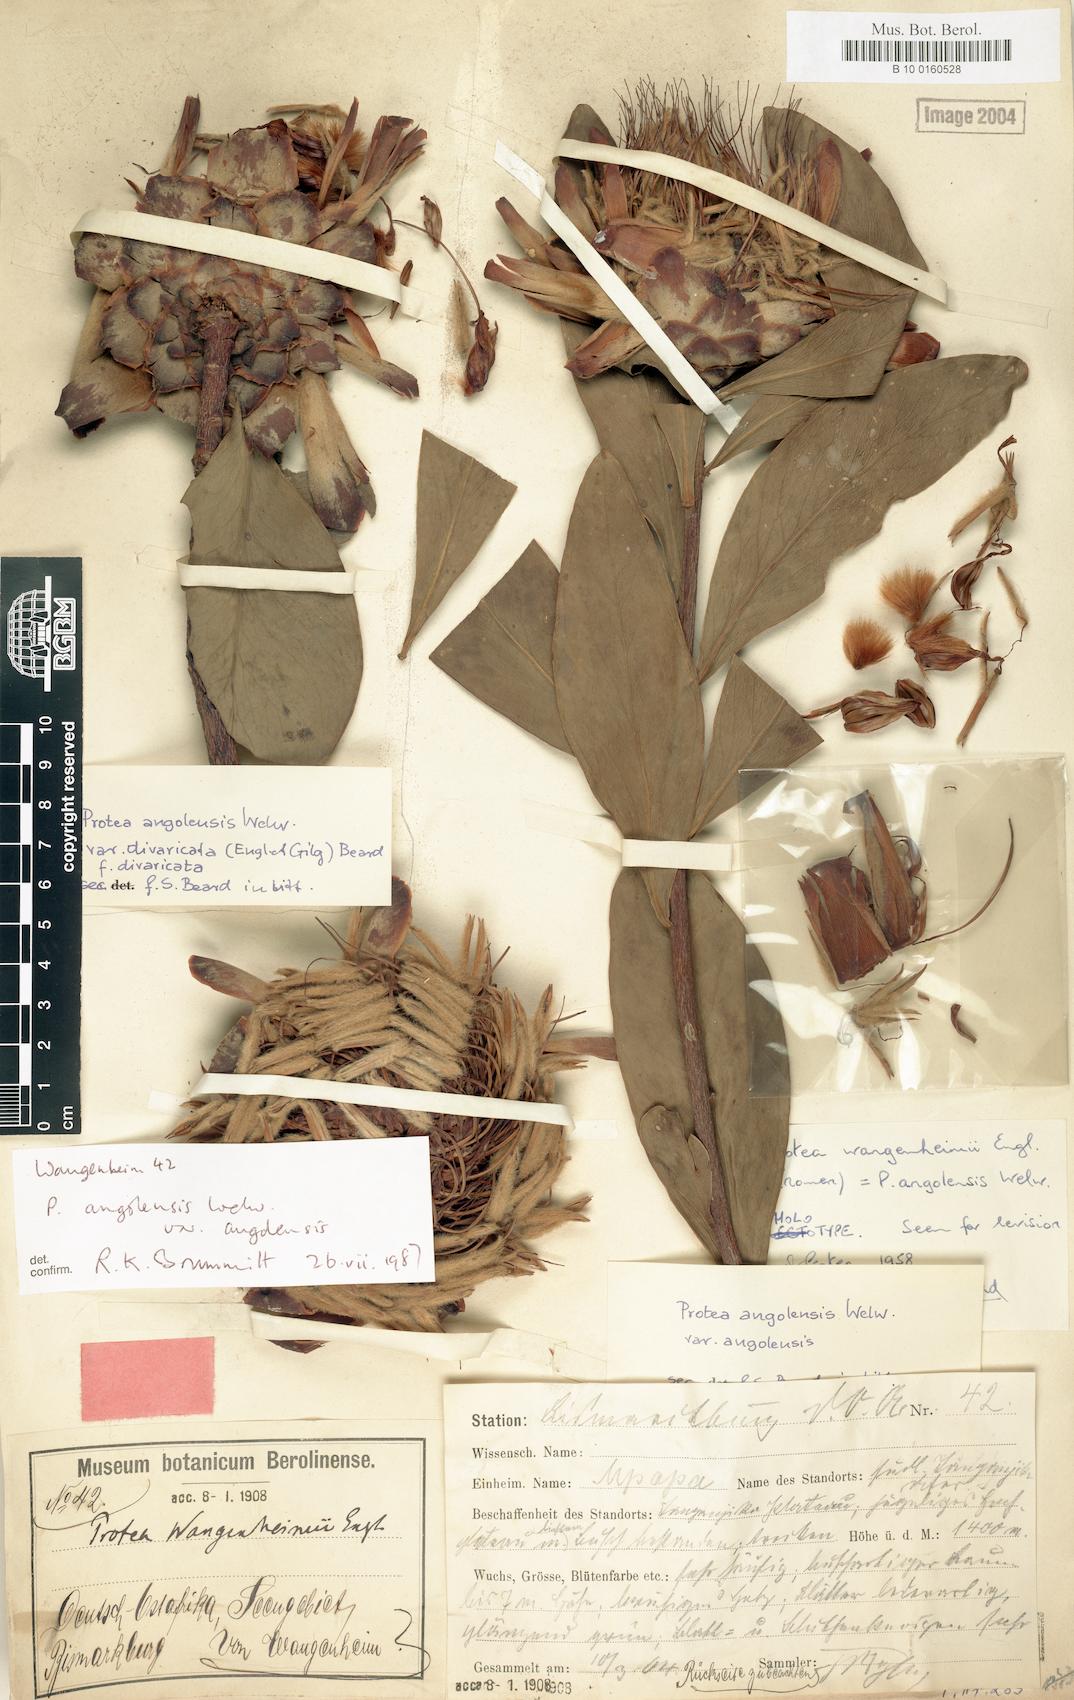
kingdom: Plantae
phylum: Tracheophyta
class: Magnoliopsida
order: Proteales
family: Proteaceae
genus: Protea
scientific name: Protea angolensis
